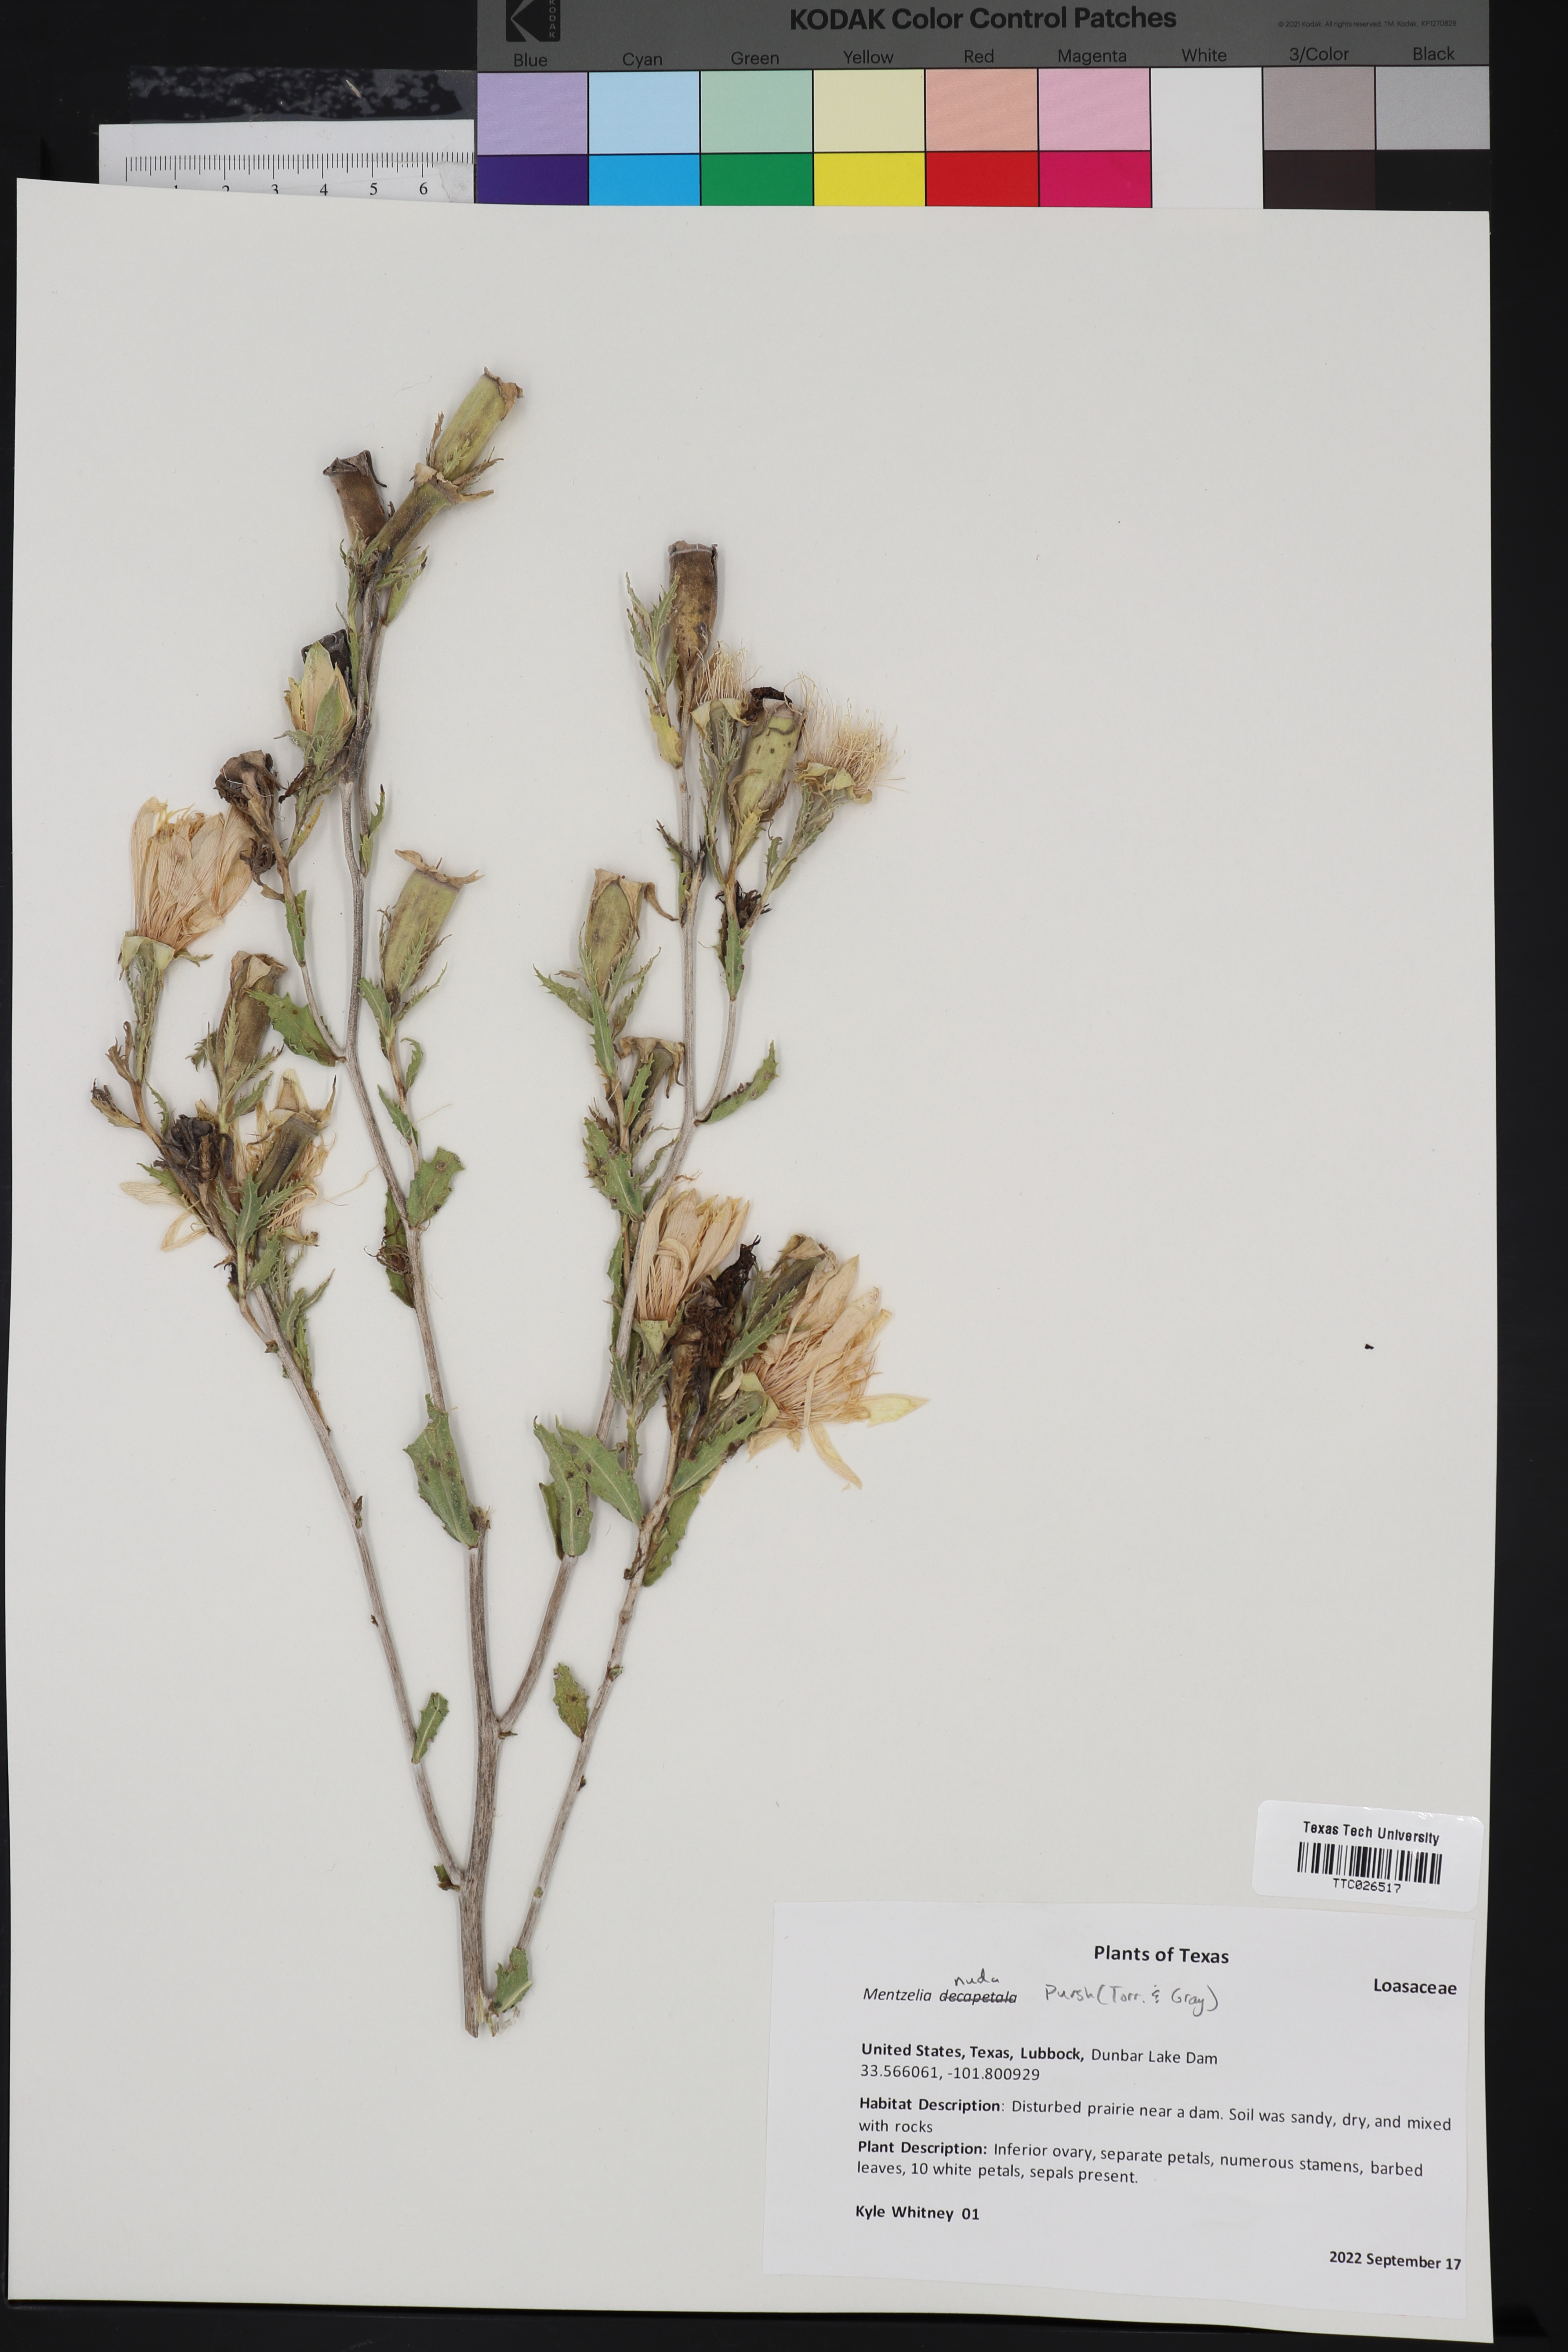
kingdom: Plantae
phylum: Tracheophyta
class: Magnoliopsida
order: Cornales
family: Loasaceae
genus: Mentzelia
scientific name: Mentzelia nuda
